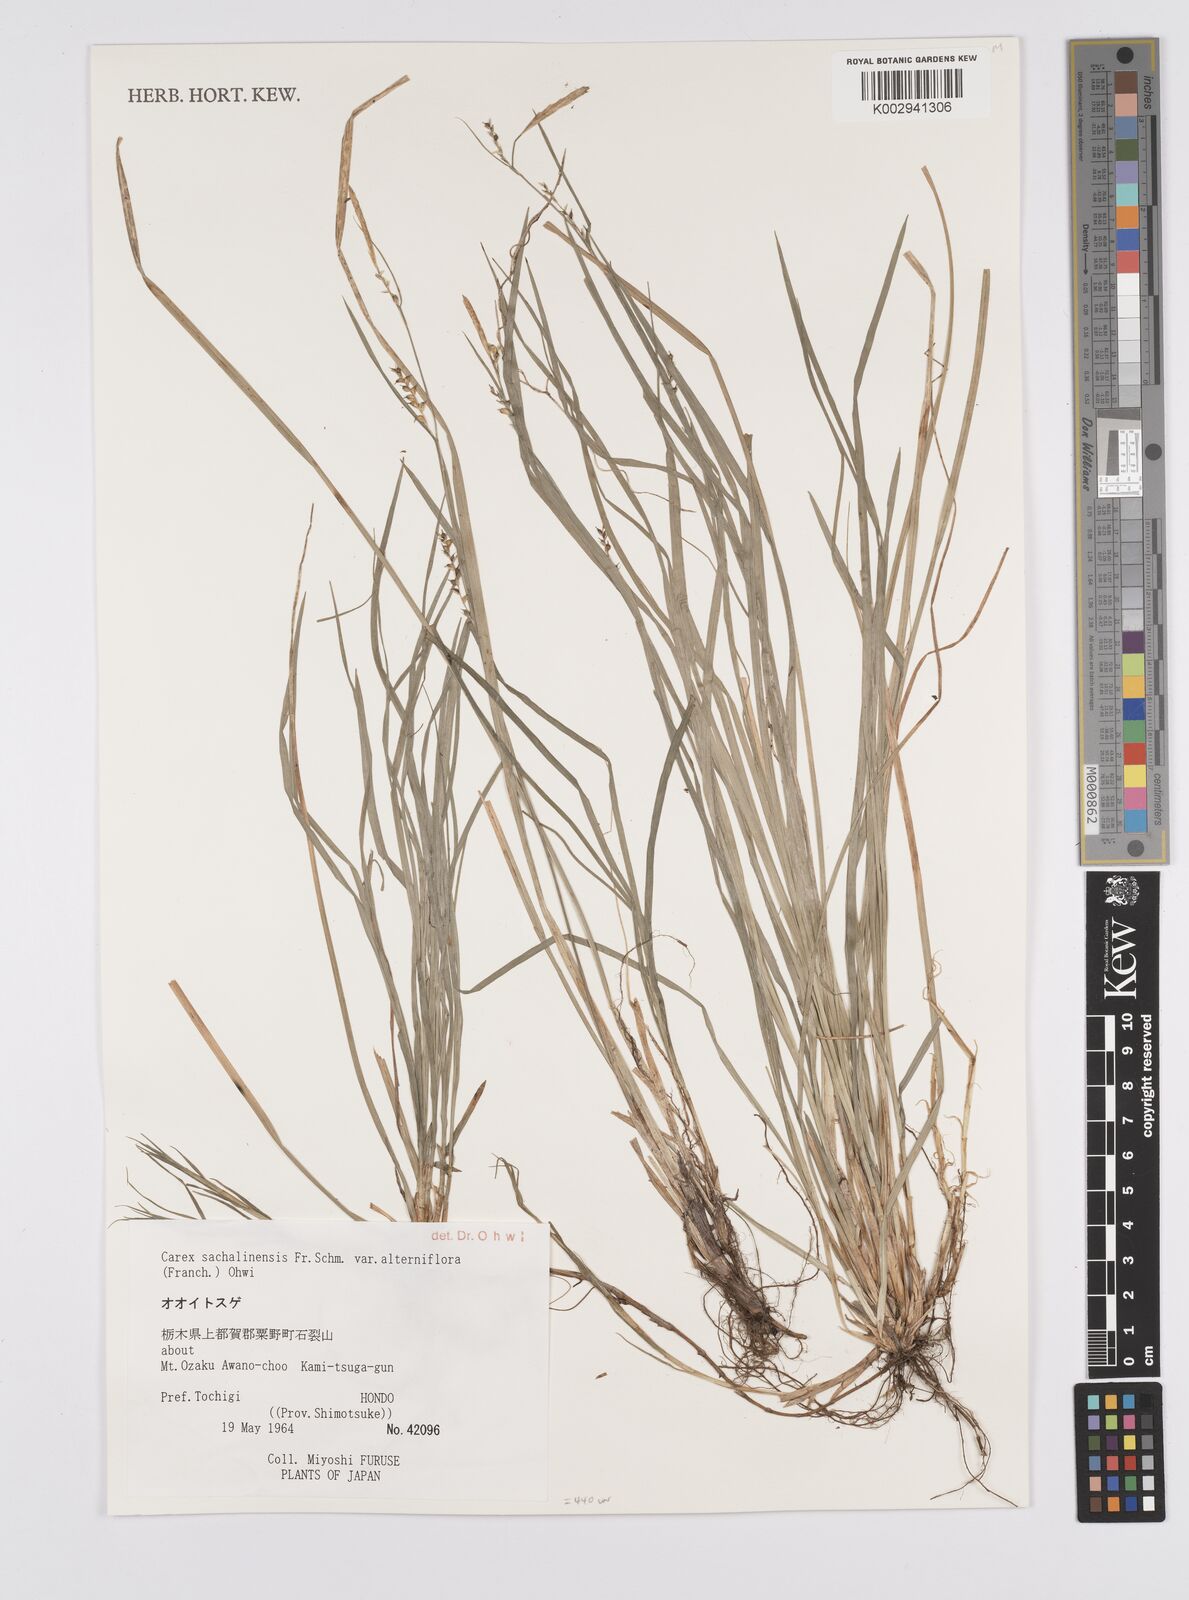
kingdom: Plantae
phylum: Tracheophyta
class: Liliopsida
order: Poales
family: Cyperaceae
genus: Carex
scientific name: Carex pisiformis
